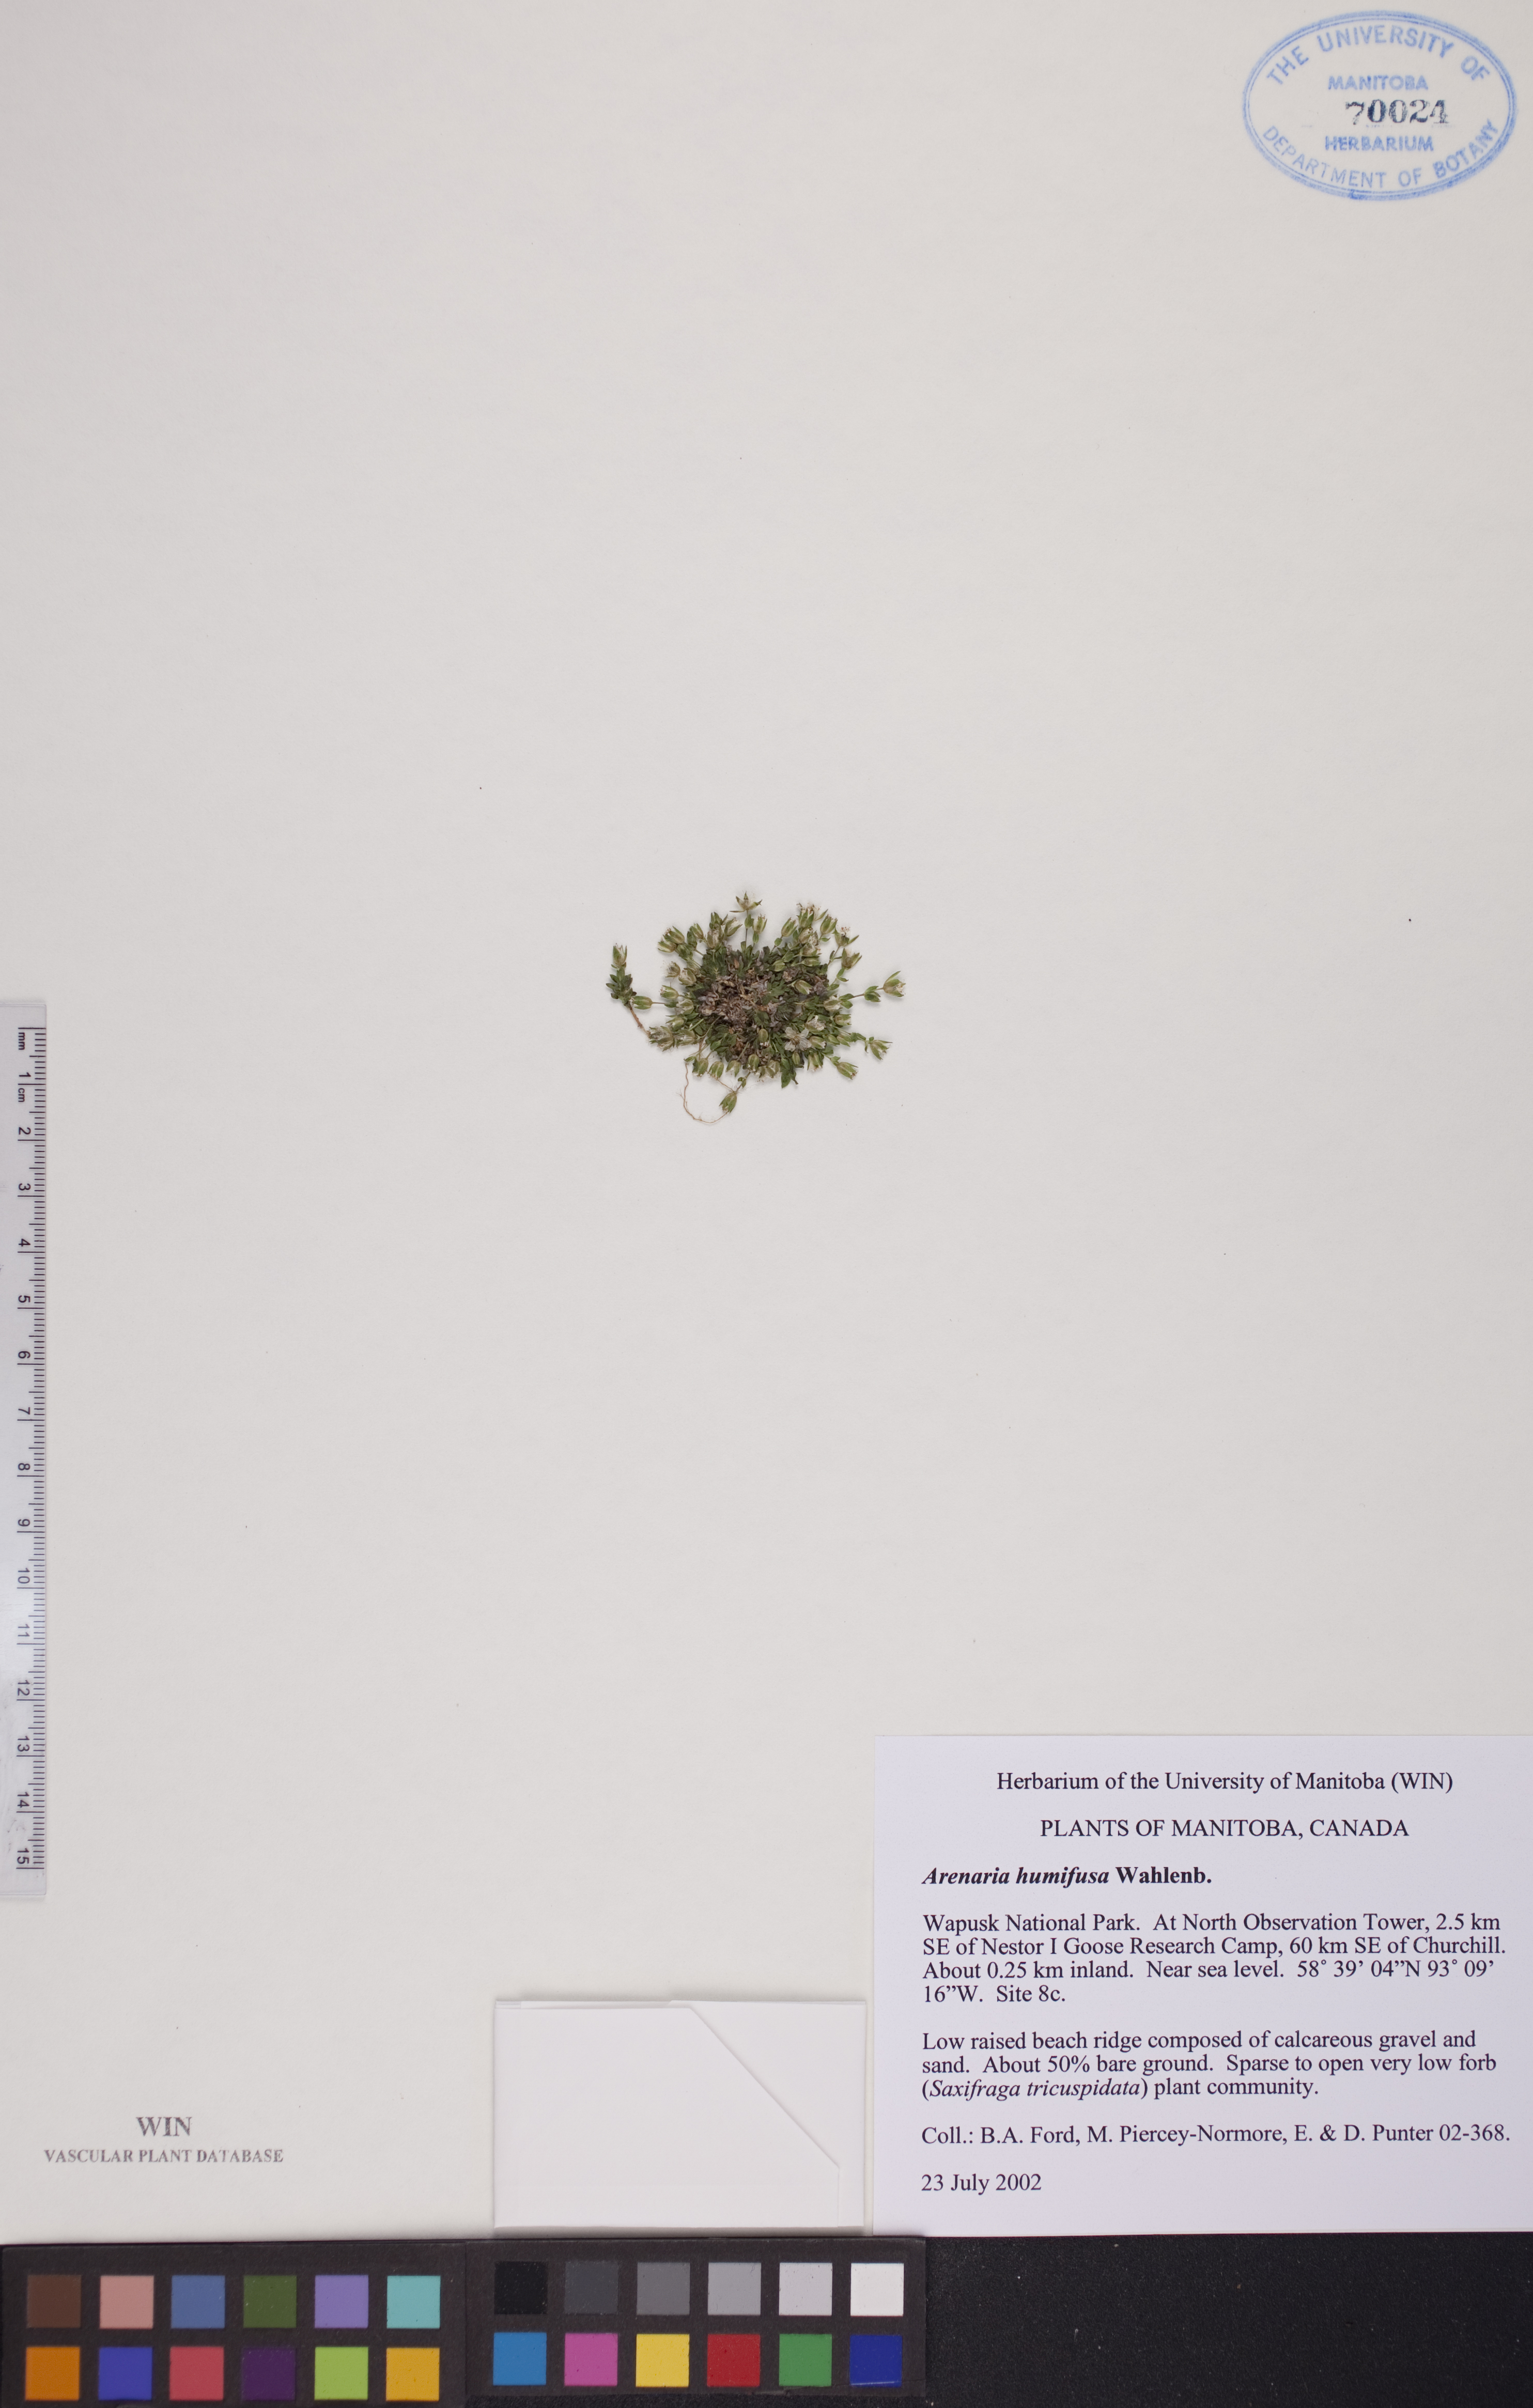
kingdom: Plantae
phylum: Tracheophyta
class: Magnoliopsida
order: Caryophyllales
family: Caryophyllaceae
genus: Arenaria
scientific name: Arenaria humifusa
